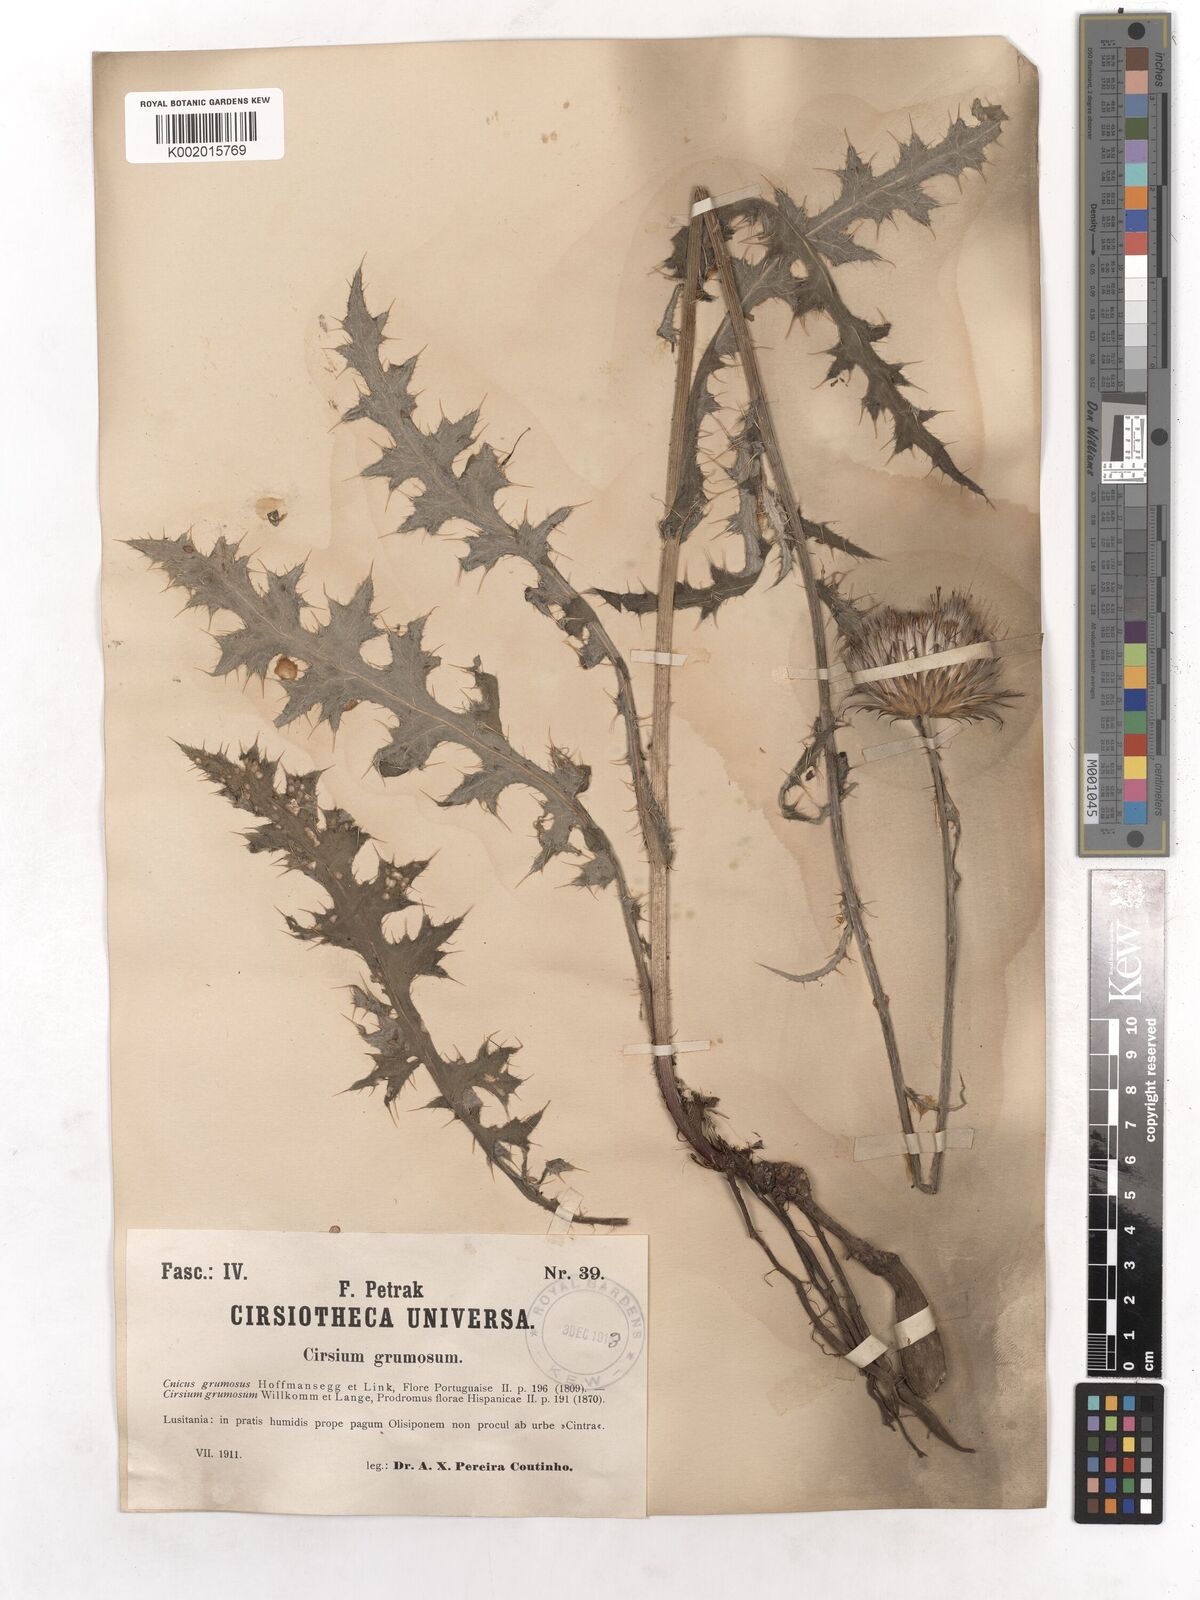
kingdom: Plantae
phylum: Tracheophyta
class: Magnoliopsida
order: Asterales
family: Asteraceae
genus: Cirsium
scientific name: Cirsium filipendulum
